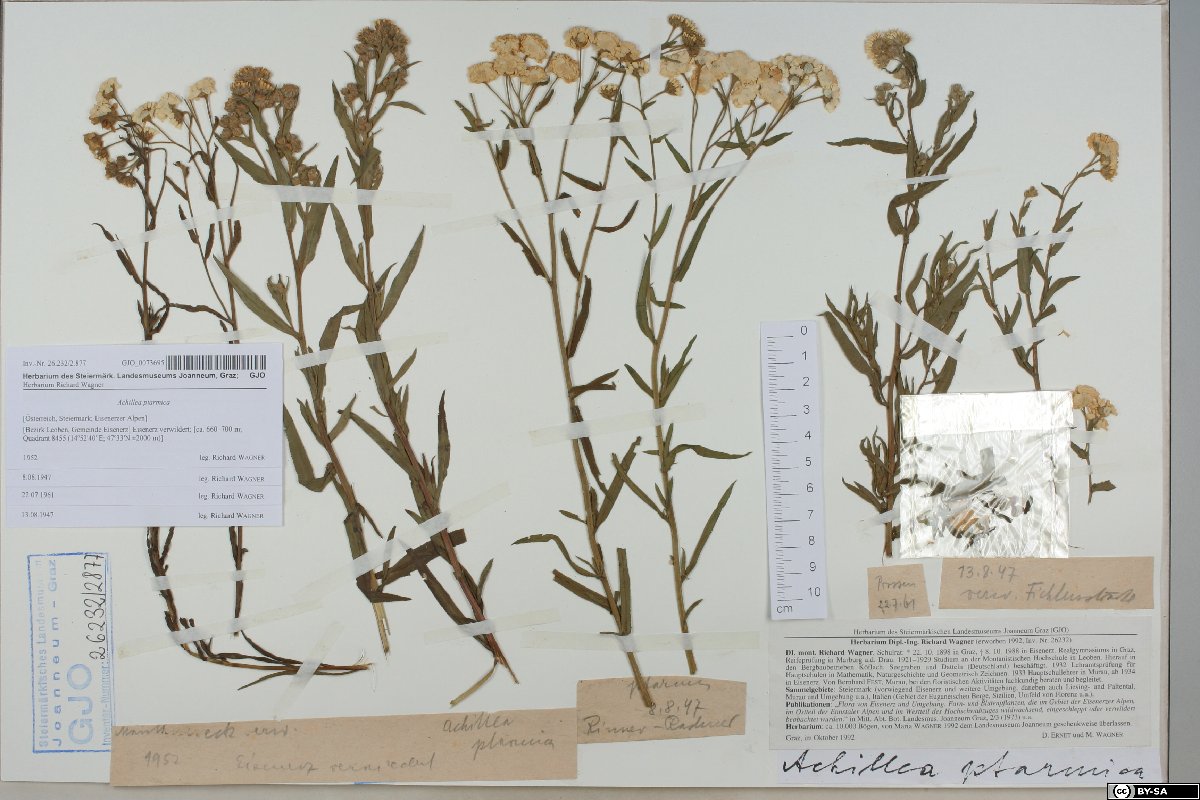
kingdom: Plantae
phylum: Tracheophyta
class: Magnoliopsida
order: Asterales
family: Asteraceae
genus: Achillea
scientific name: Achillea ptarmica
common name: Sneezeweed
